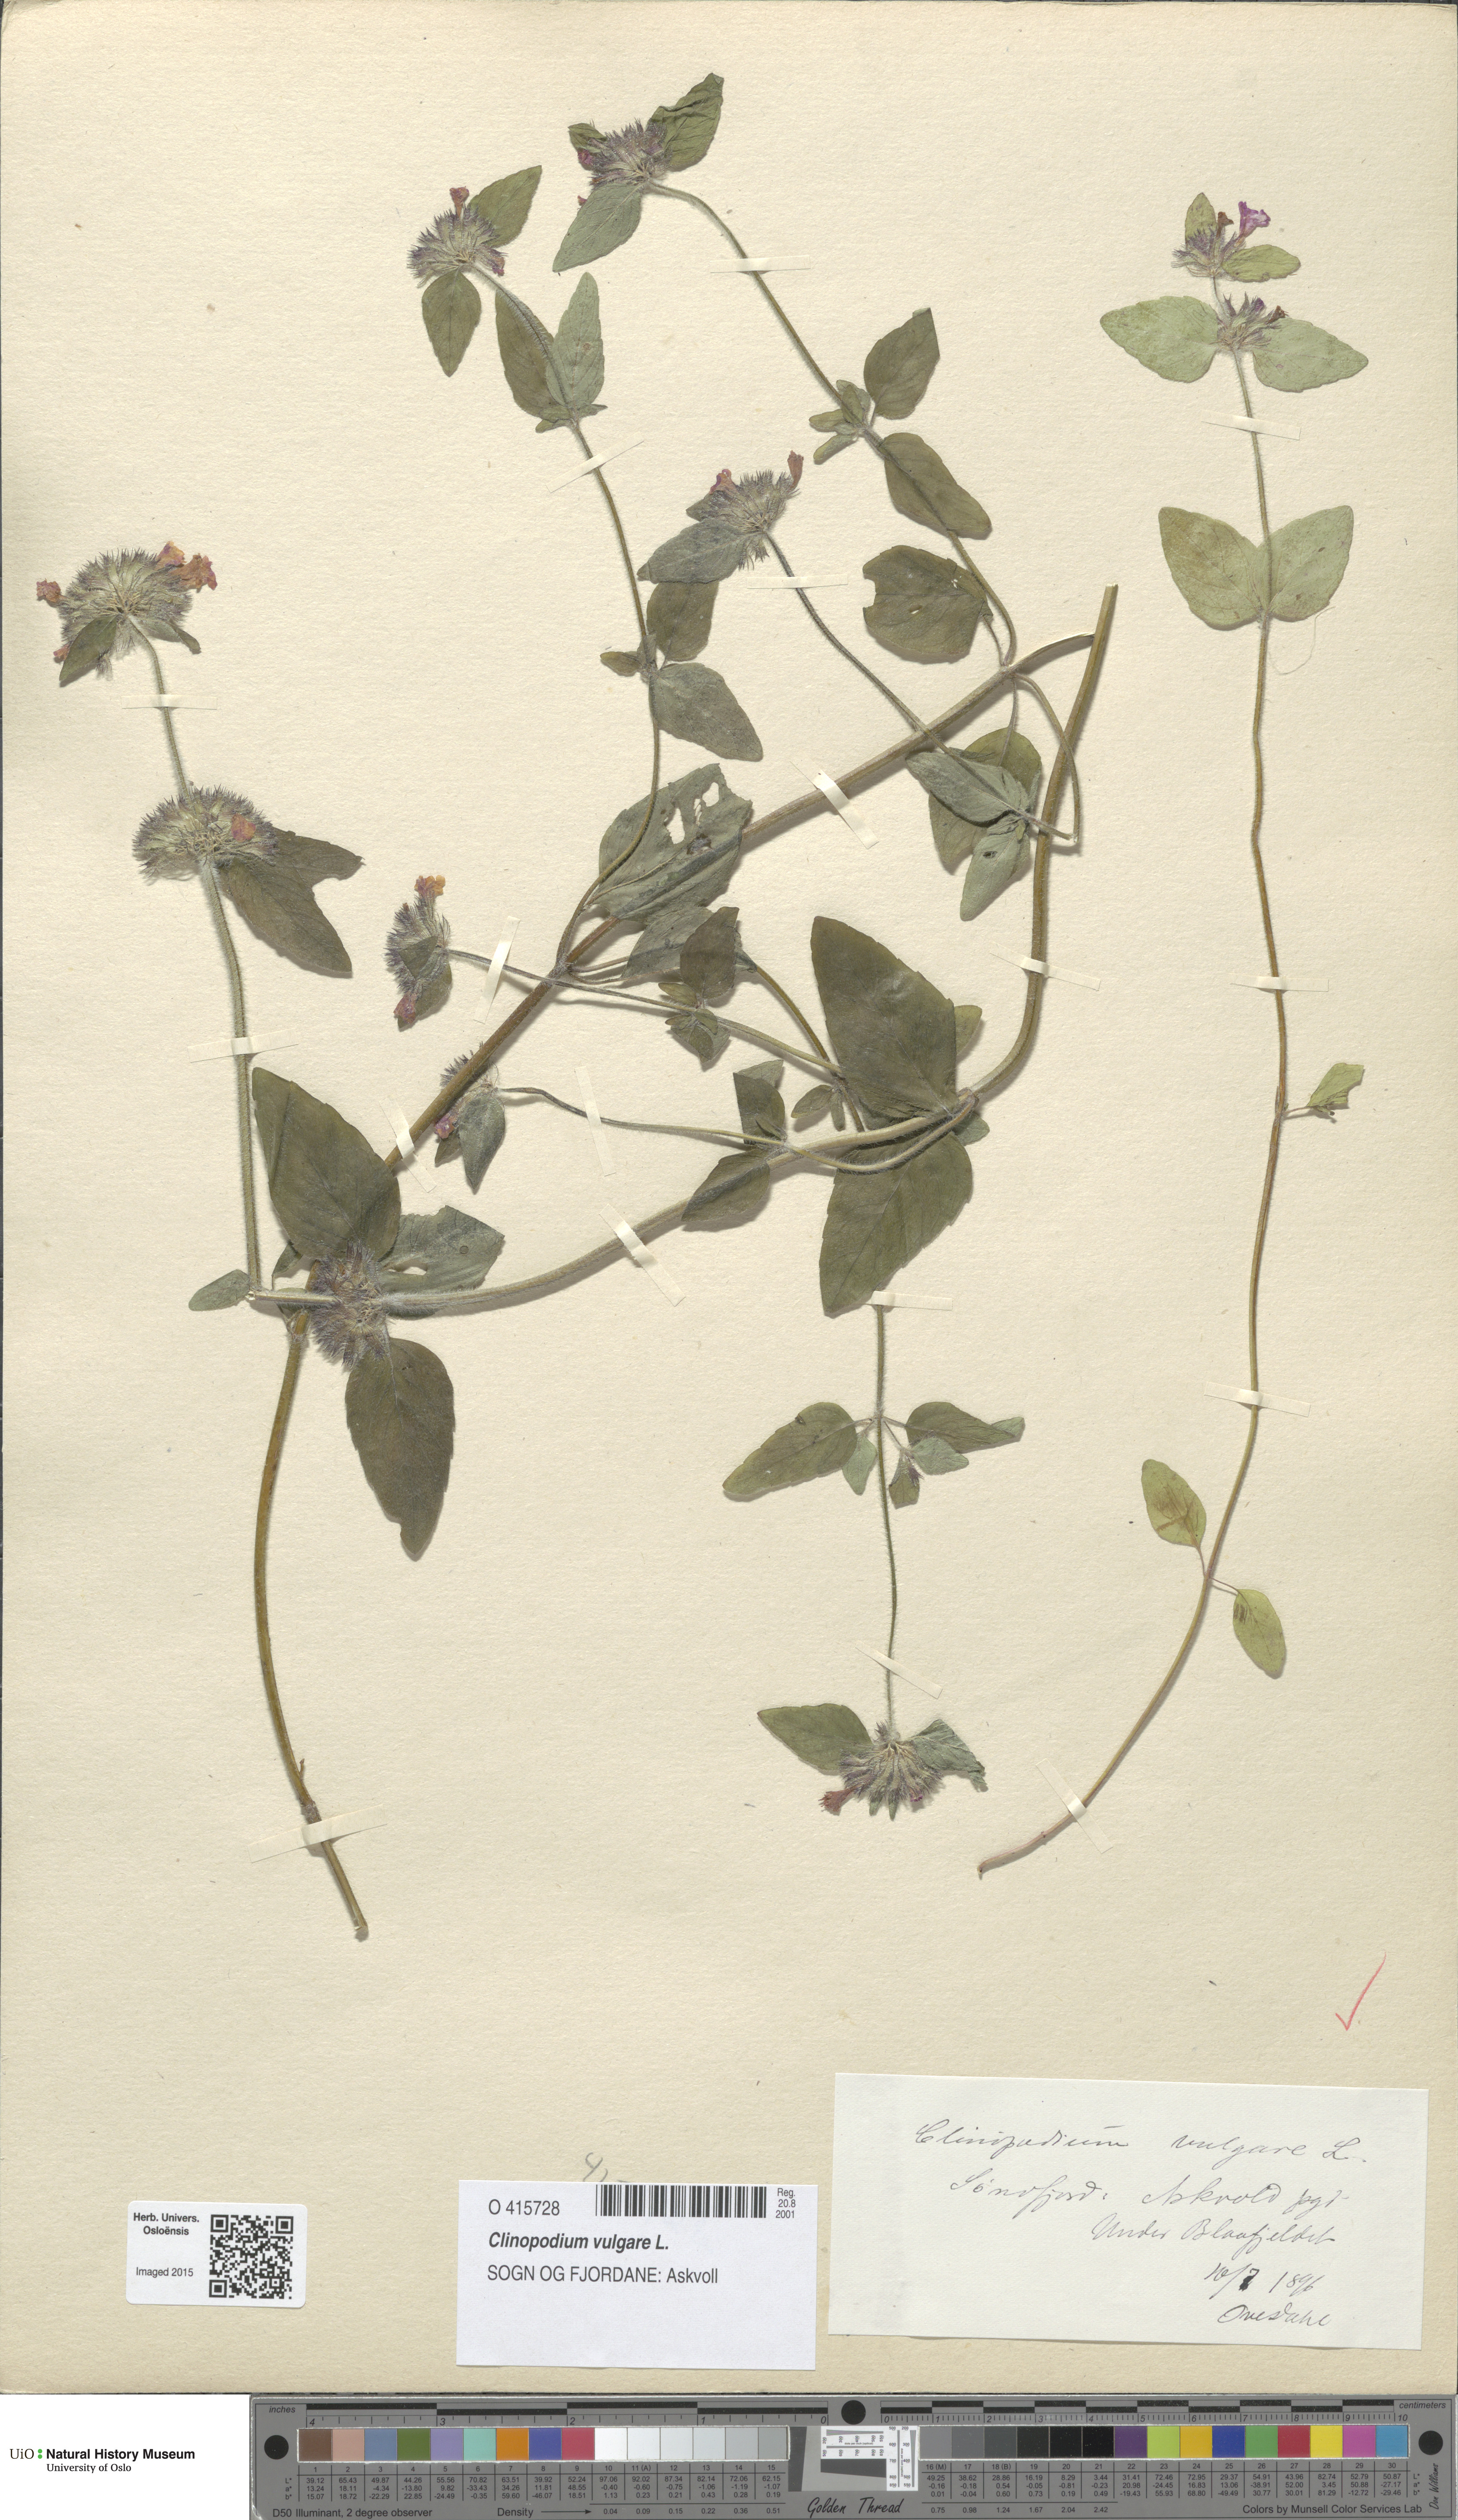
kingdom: Plantae
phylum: Tracheophyta
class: Magnoliopsida
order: Lamiales
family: Lamiaceae
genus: Clinopodium
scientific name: Clinopodium vulgare
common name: Wild basil
